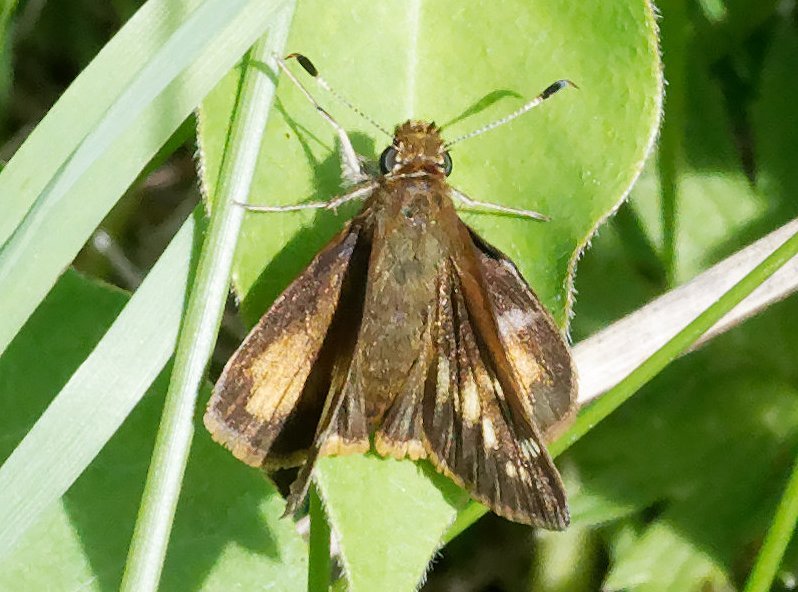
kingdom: Animalia
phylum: Arthropoda
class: Insecta
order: Lepidoptera
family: Hesperiidae
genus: Lon
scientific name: Lon hobomok
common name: Hobomok Skipper
